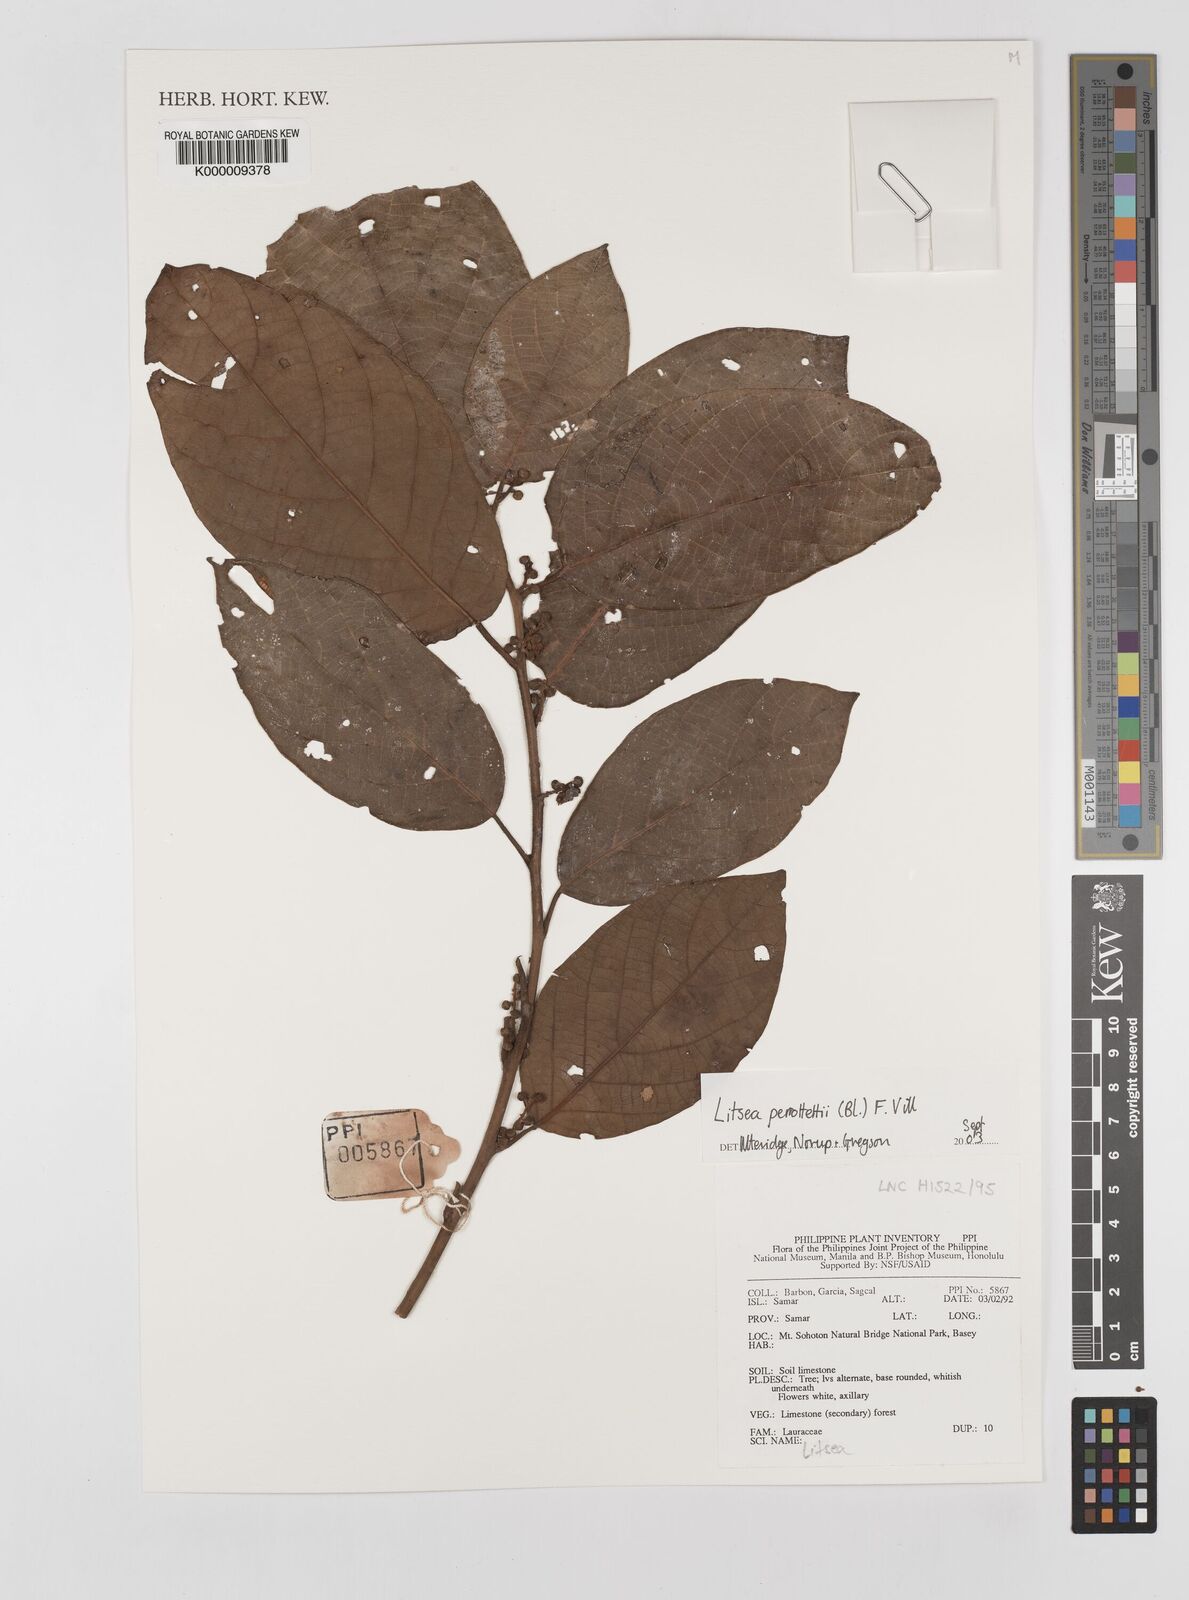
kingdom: Plantae
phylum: Tracheophyta
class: Magnoliopsida
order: Laurales
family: Lauraceae
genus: Litsea
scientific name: Litsea cordata
